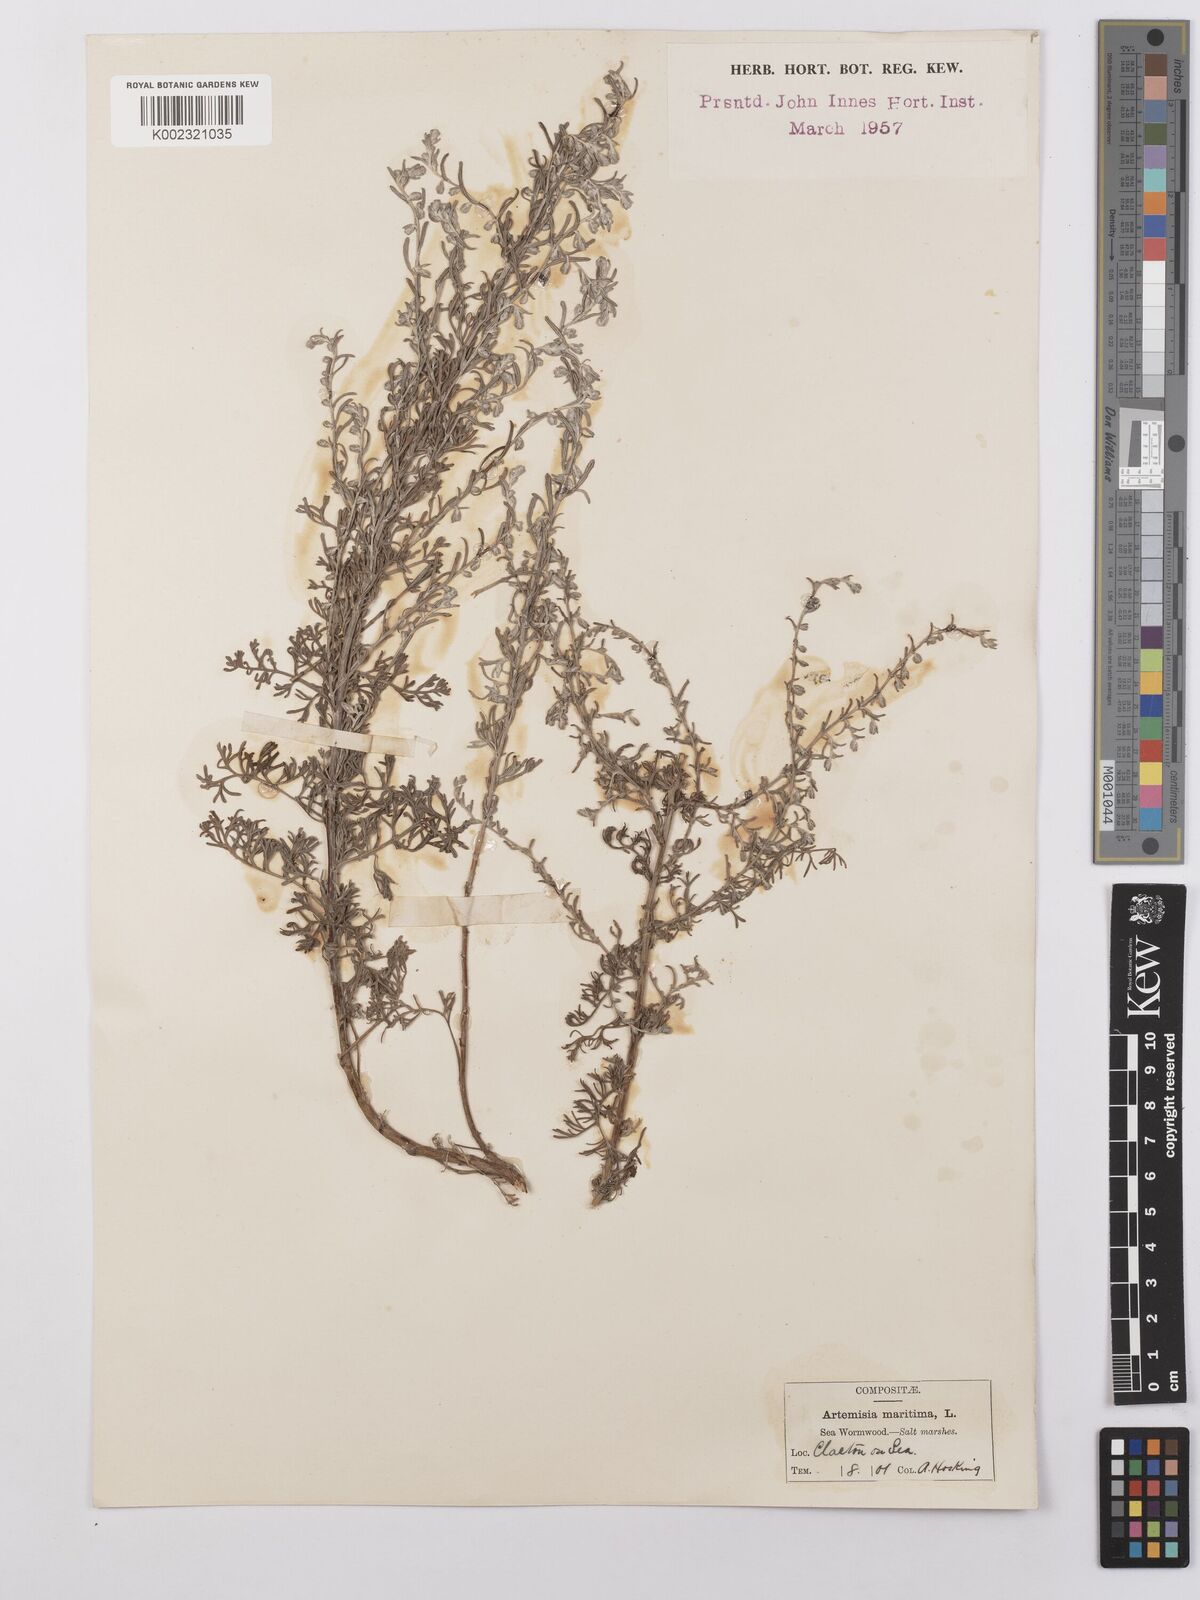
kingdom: Plantae
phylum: Tracheophyta
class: Magnoliopsida
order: Asterales
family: Asteraceae
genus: Artemisia
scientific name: Artemisia maritima
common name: Wormseed
